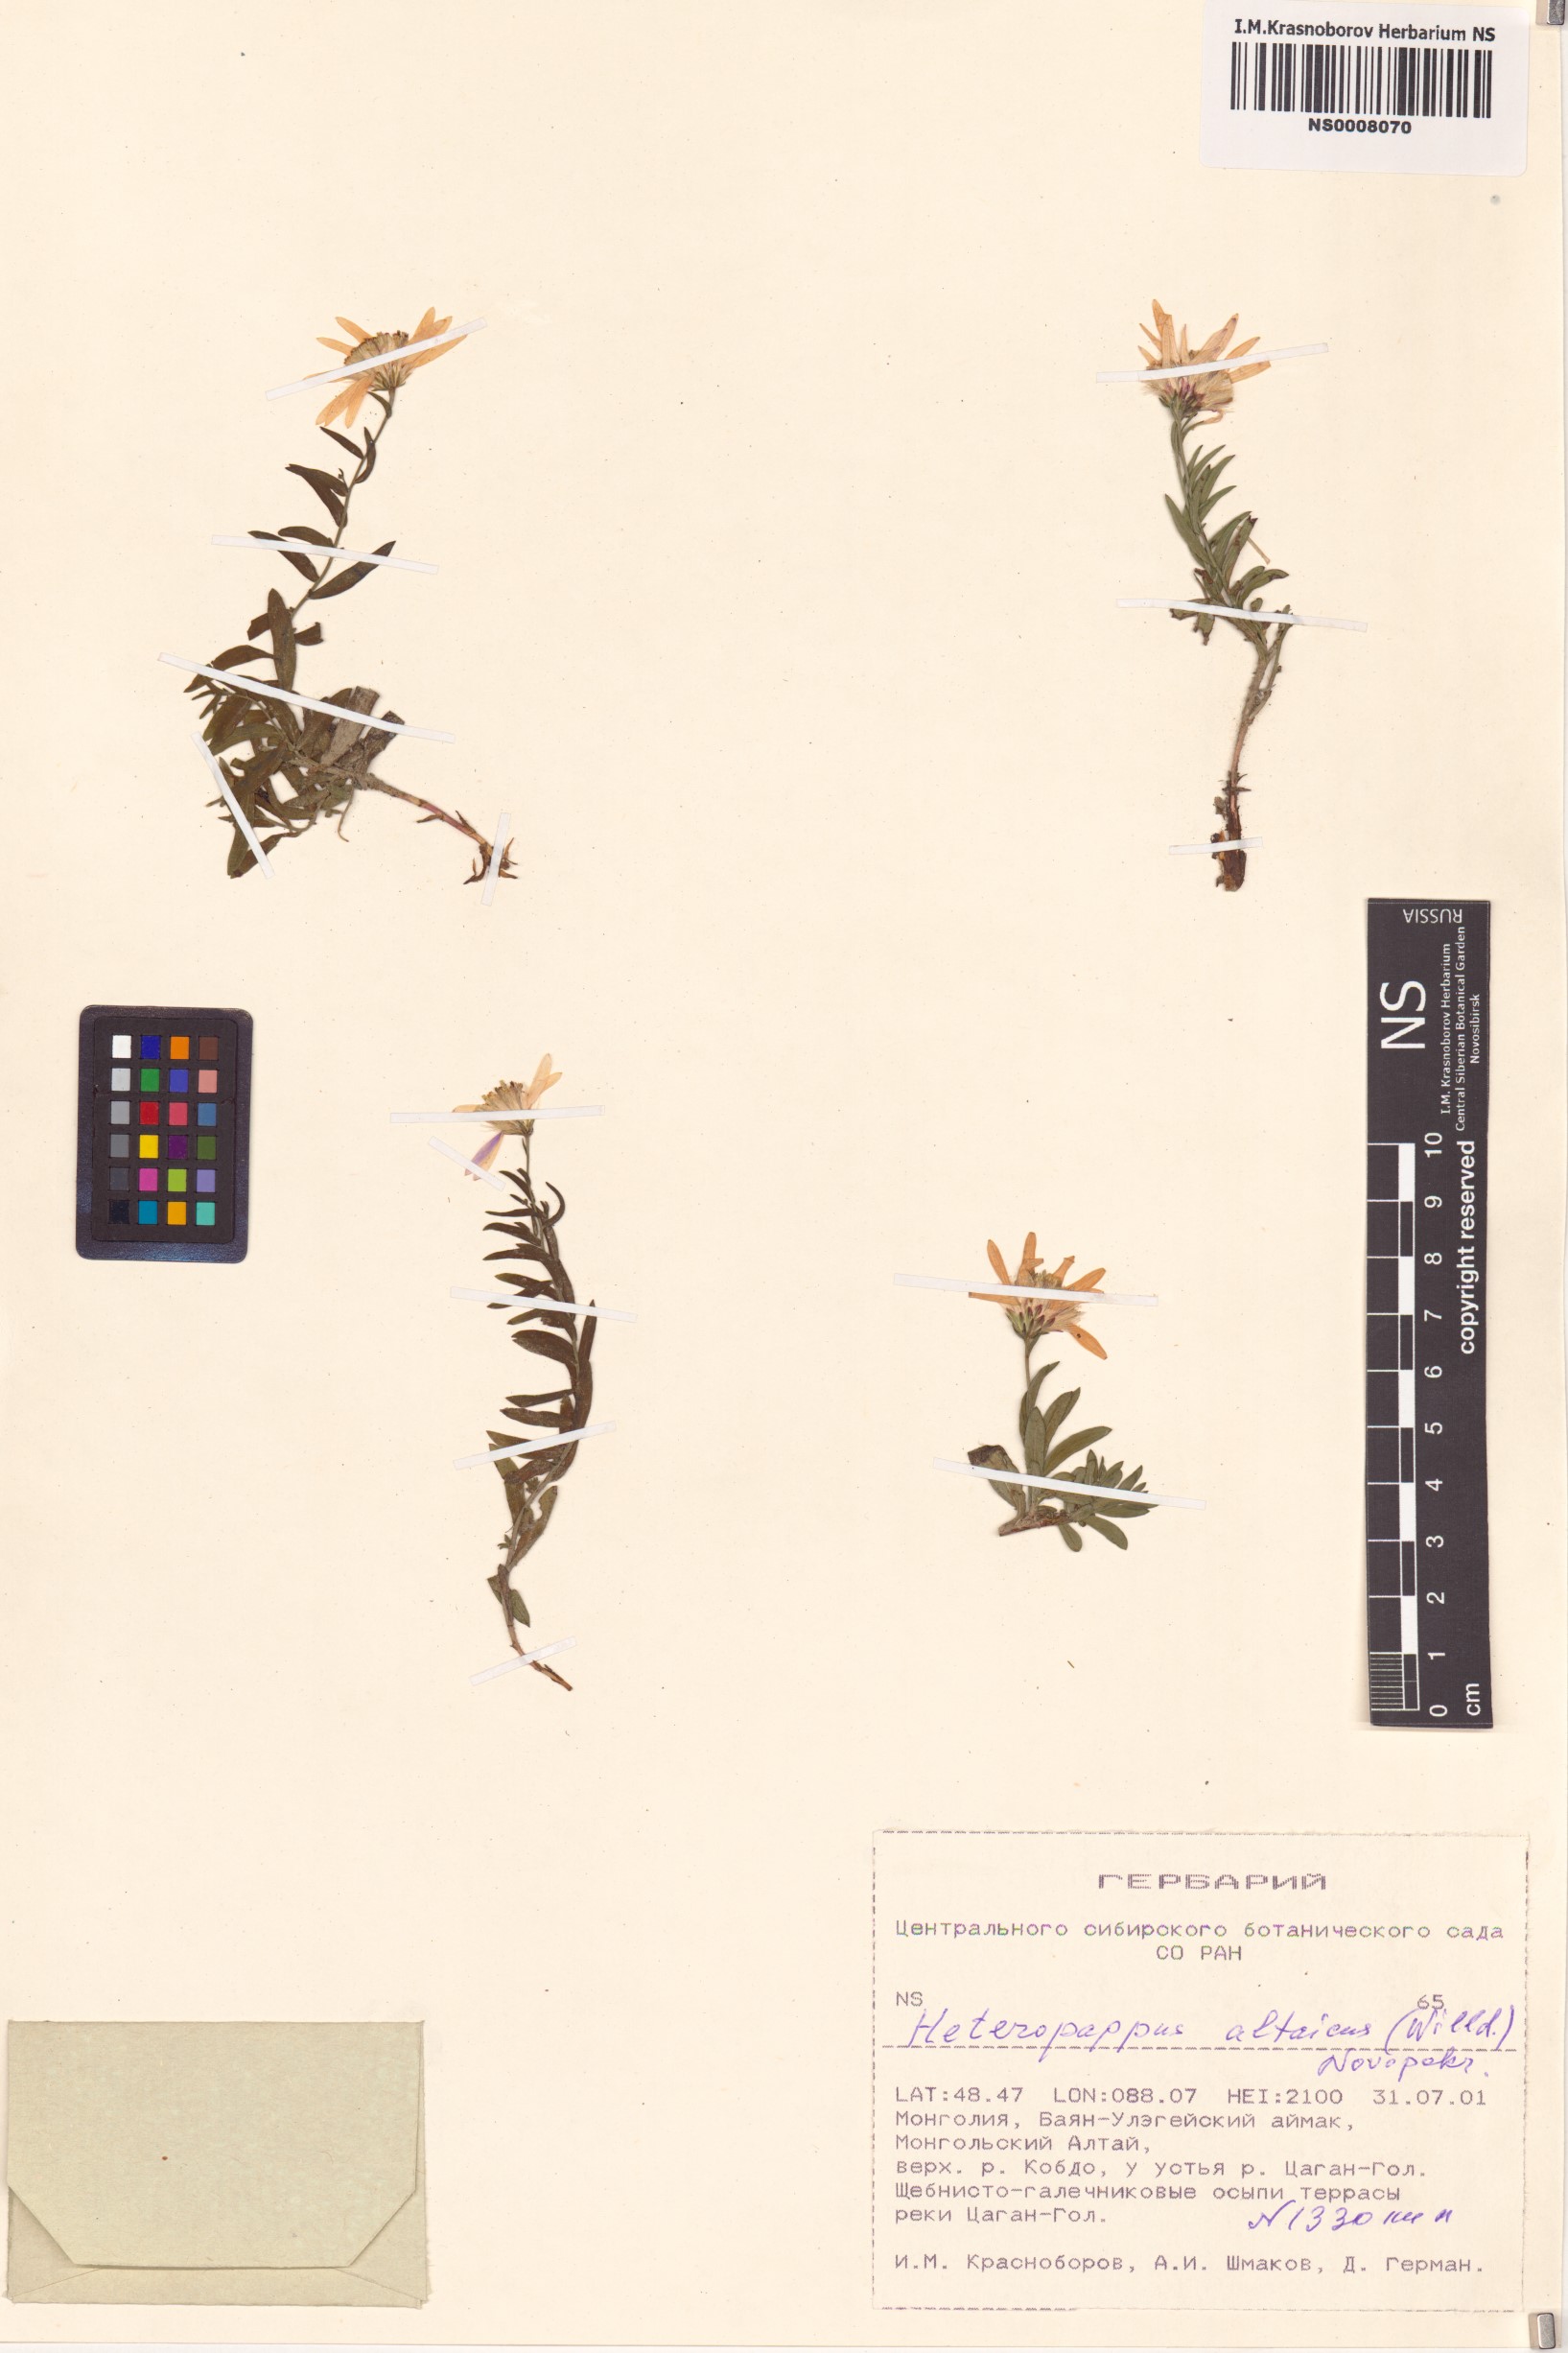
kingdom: Plantae
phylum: Tracheophyta
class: Magnoliopsida
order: Asterales
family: Asteraceae
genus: Heteropappus
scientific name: Heteropappus altaicus
